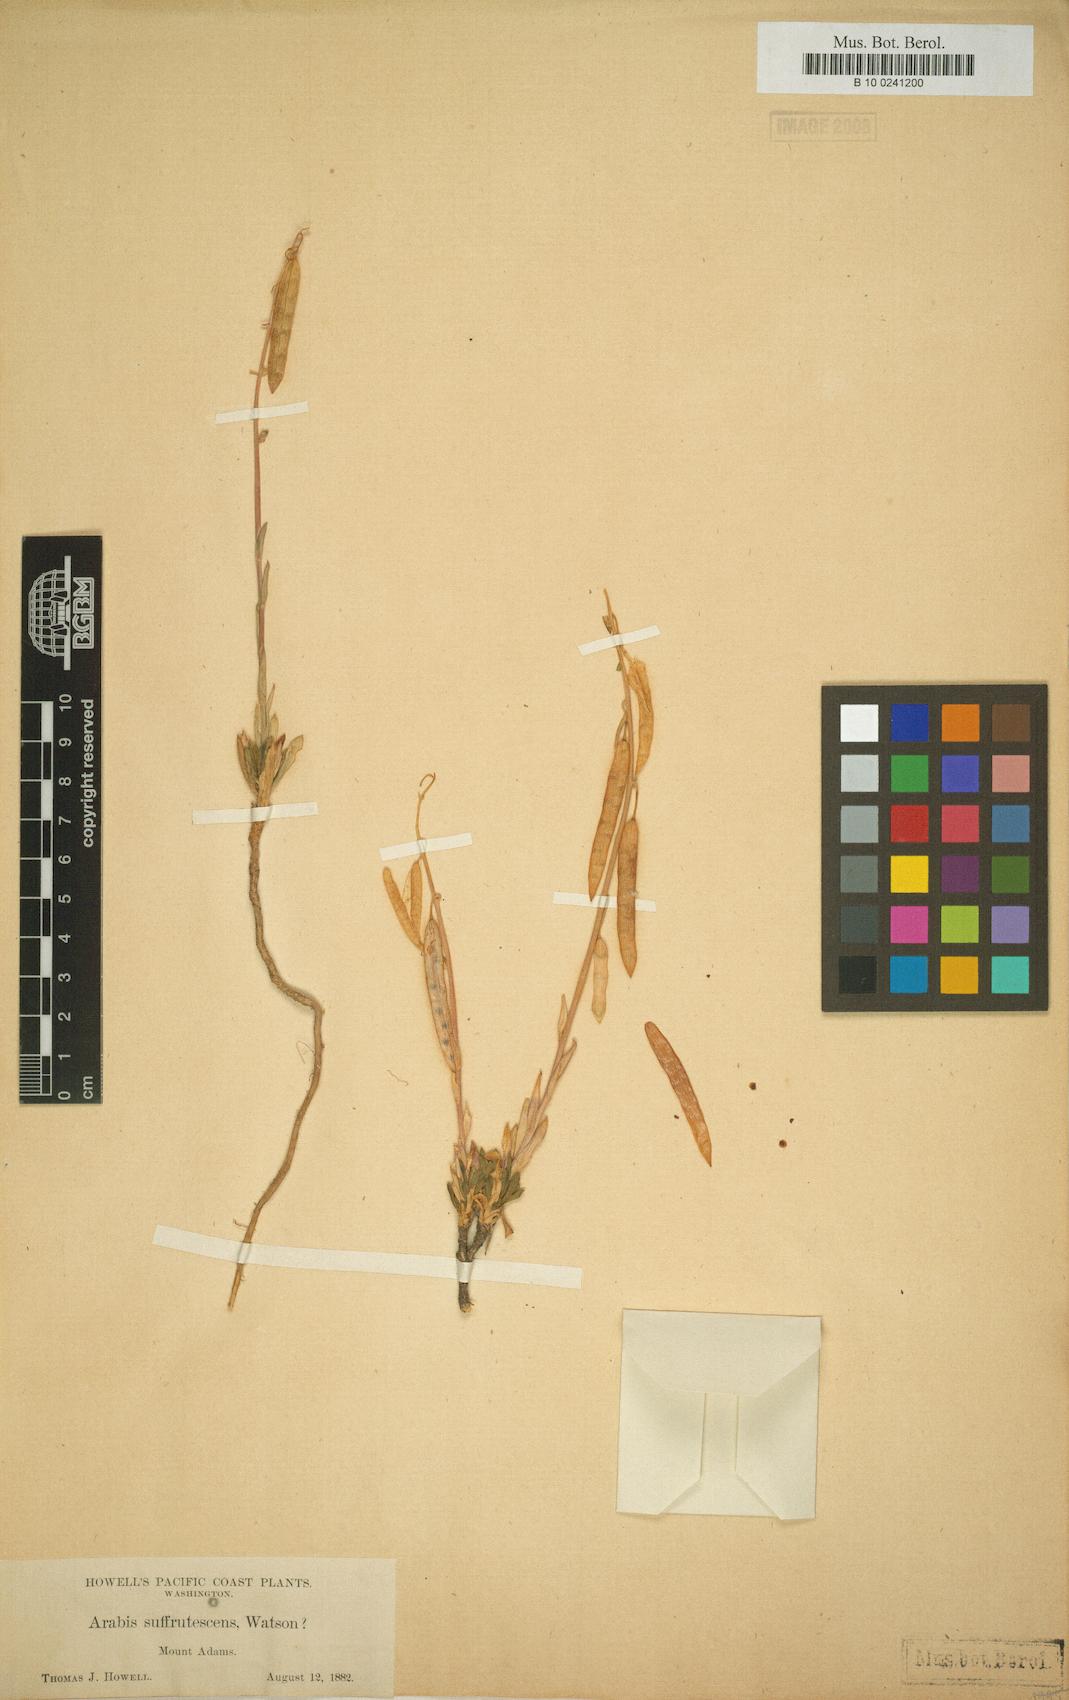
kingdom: Plantae
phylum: Tracheophyta
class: Magnoliopsida
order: Brassicales
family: Brassicaceae
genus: Boechera
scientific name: Boechera suffrutescens
